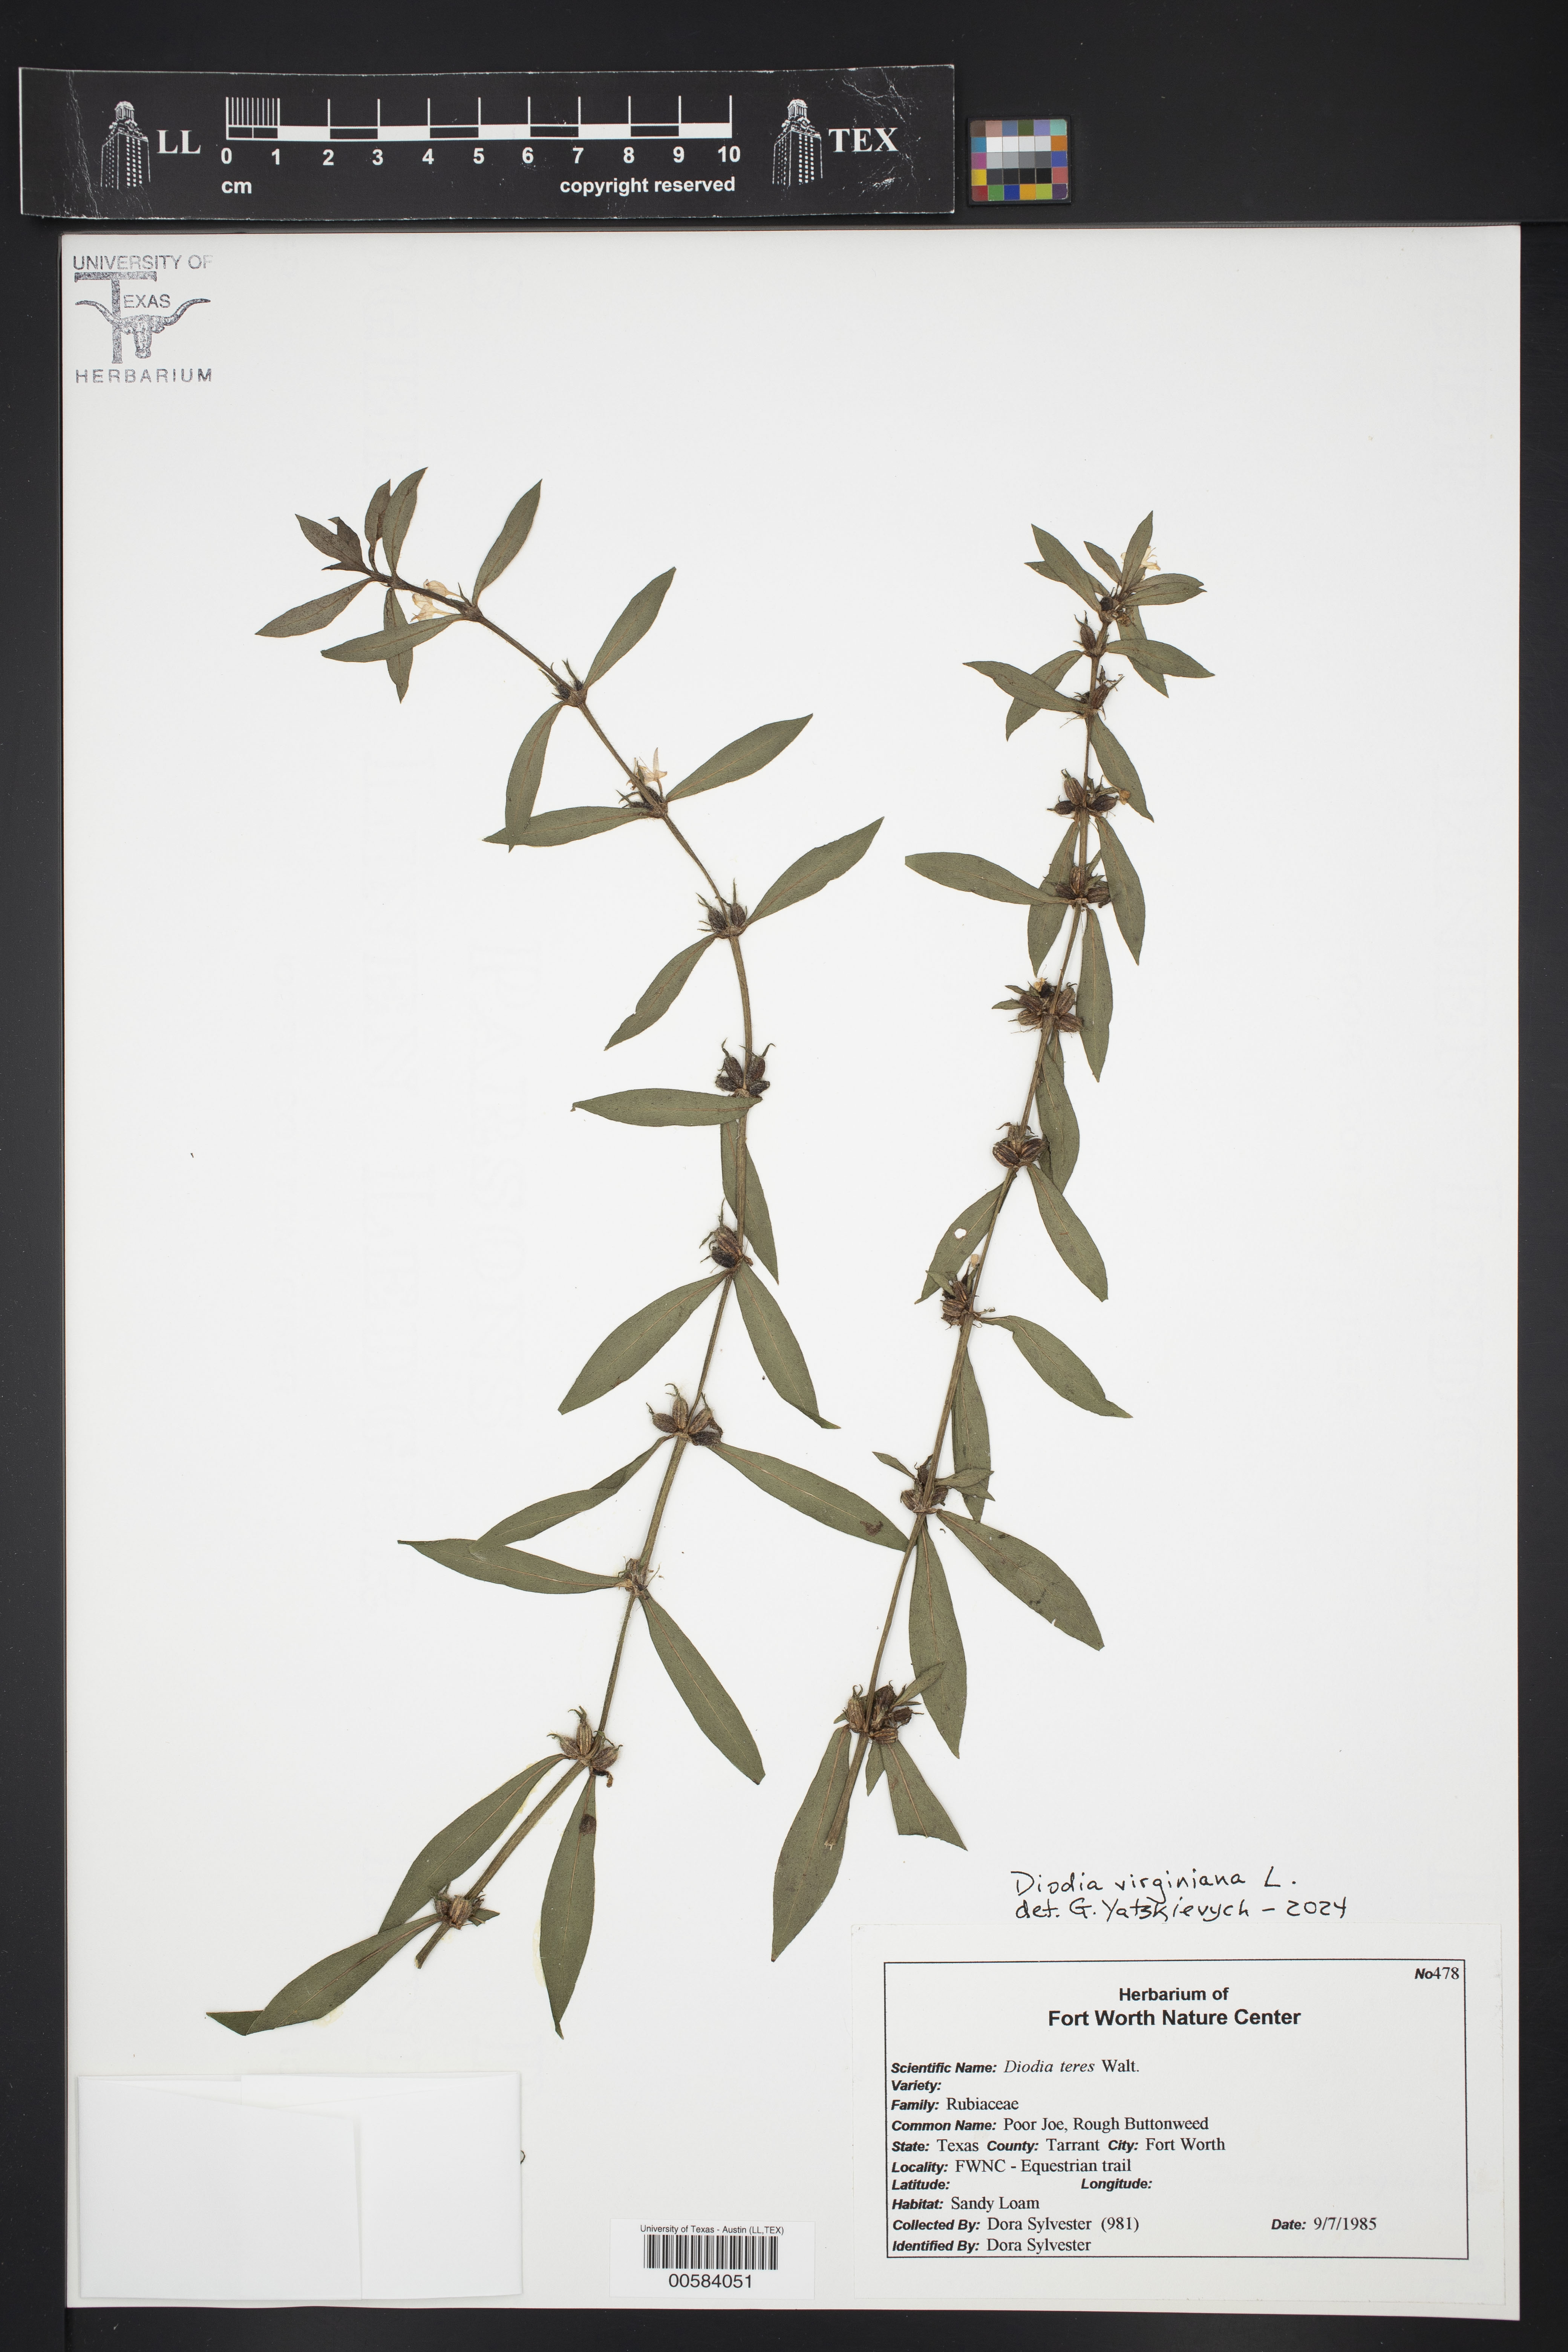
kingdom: Plantae
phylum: Tracheophyta
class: Magnoliopsida
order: Gentianales
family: Rubiaceae
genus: Diodia
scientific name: Diodia virginiana
